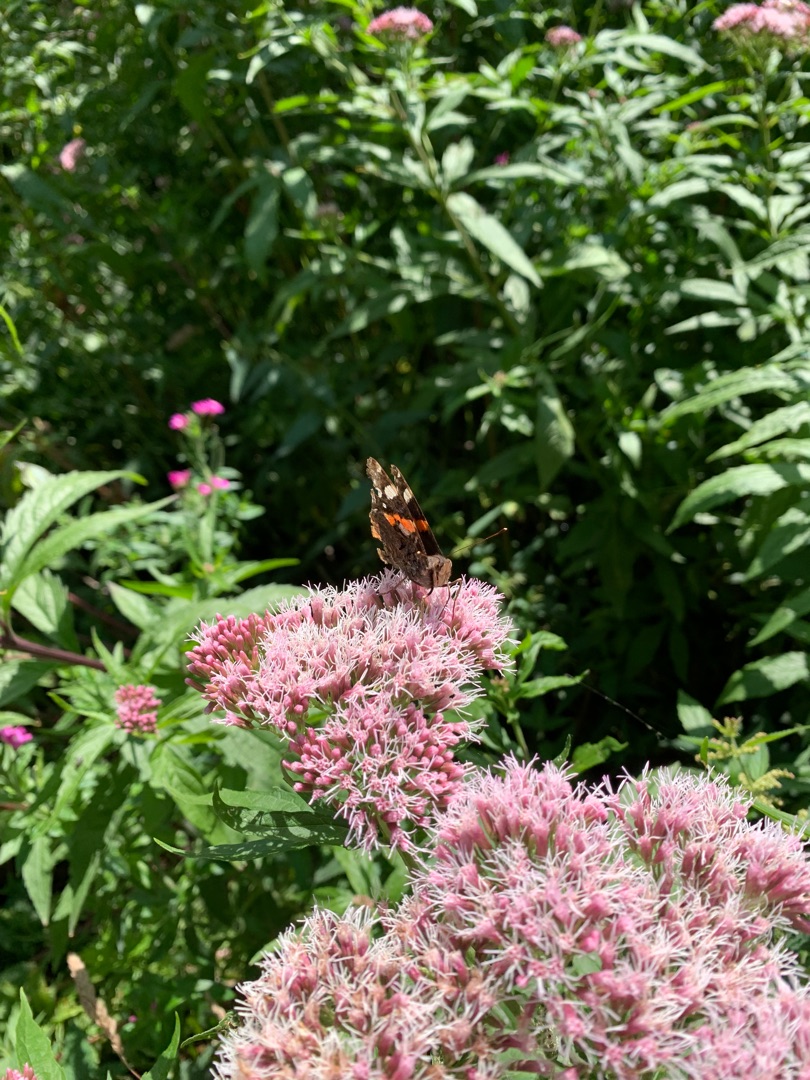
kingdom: Animalia
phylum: Arthropoda
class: Insecta
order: Lepidoptera
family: Nymphalidae
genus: Vanessa
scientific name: Vanessa atalanta
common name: Admiral
